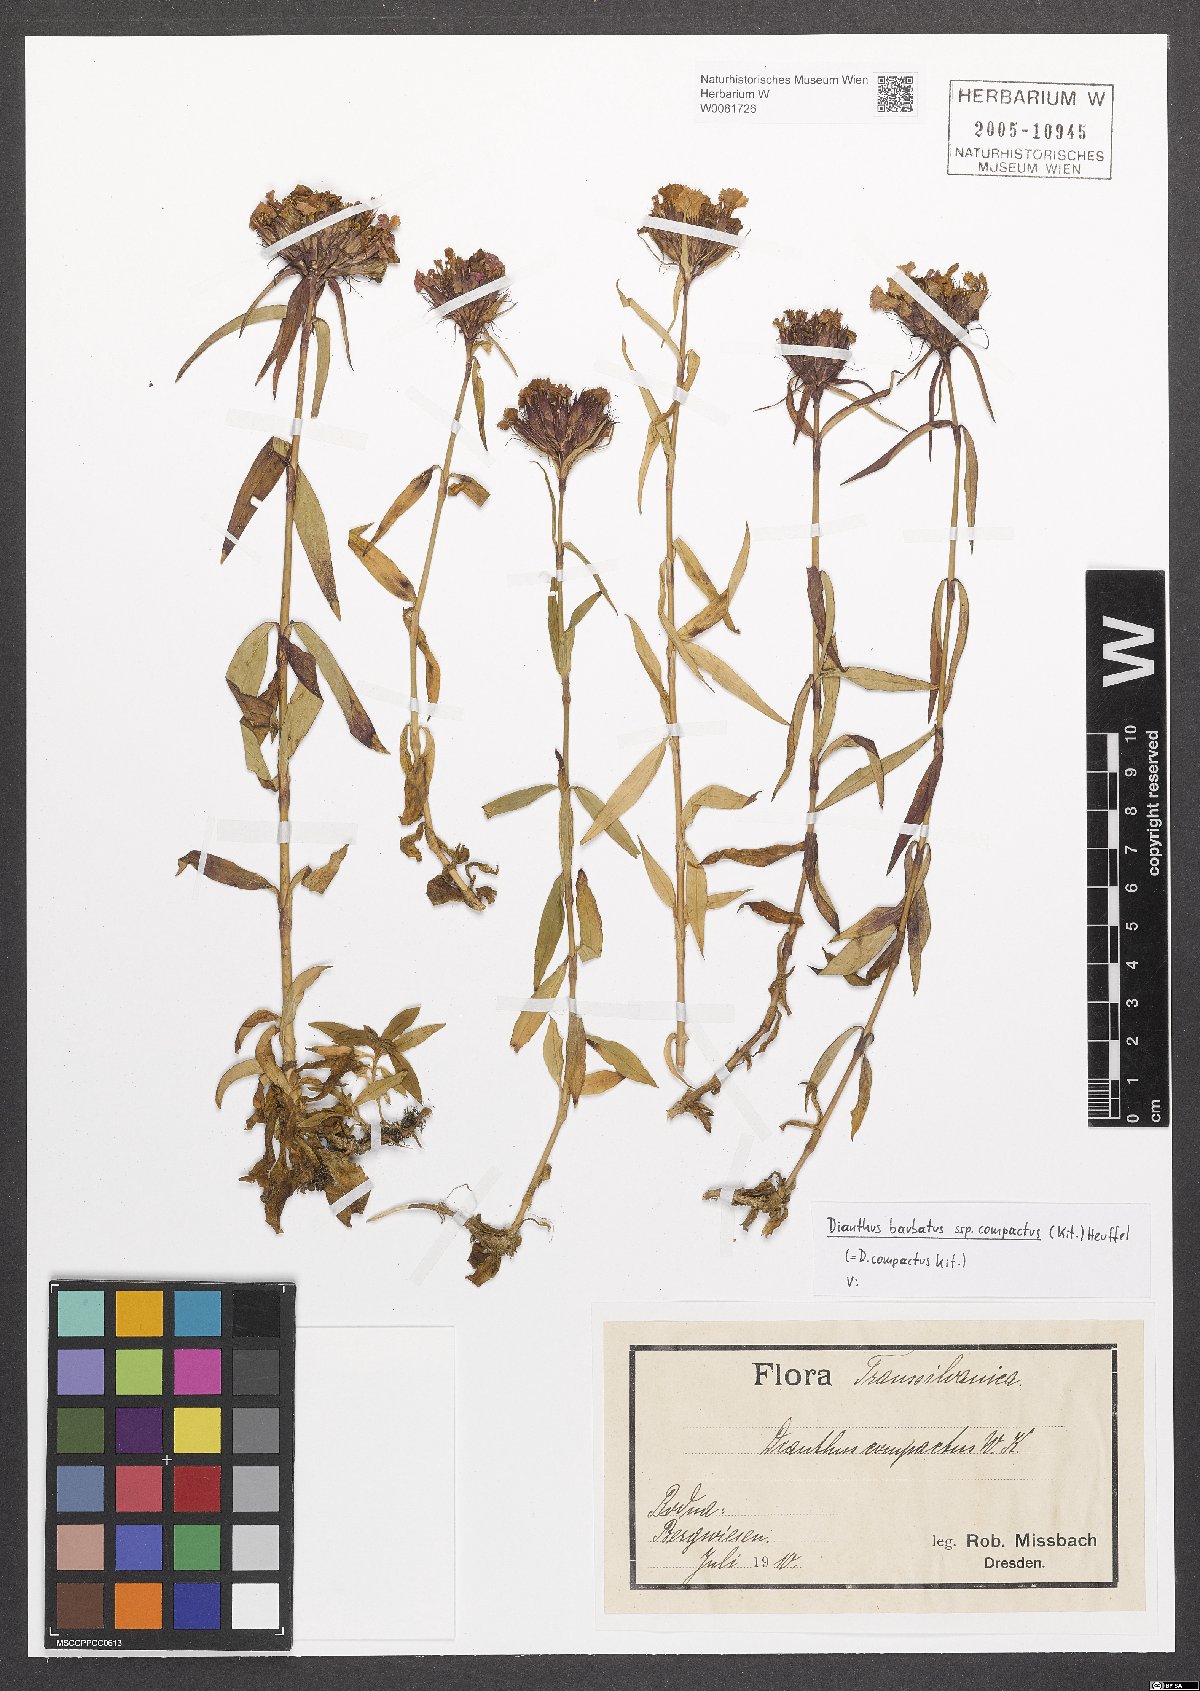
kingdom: Plantae
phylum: Tracheophyta
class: Magnoliopsida
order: Caryophyllales
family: Caryophyllaceae
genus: Dianthus
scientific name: Dianthus barbatus
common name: Sweet-william
